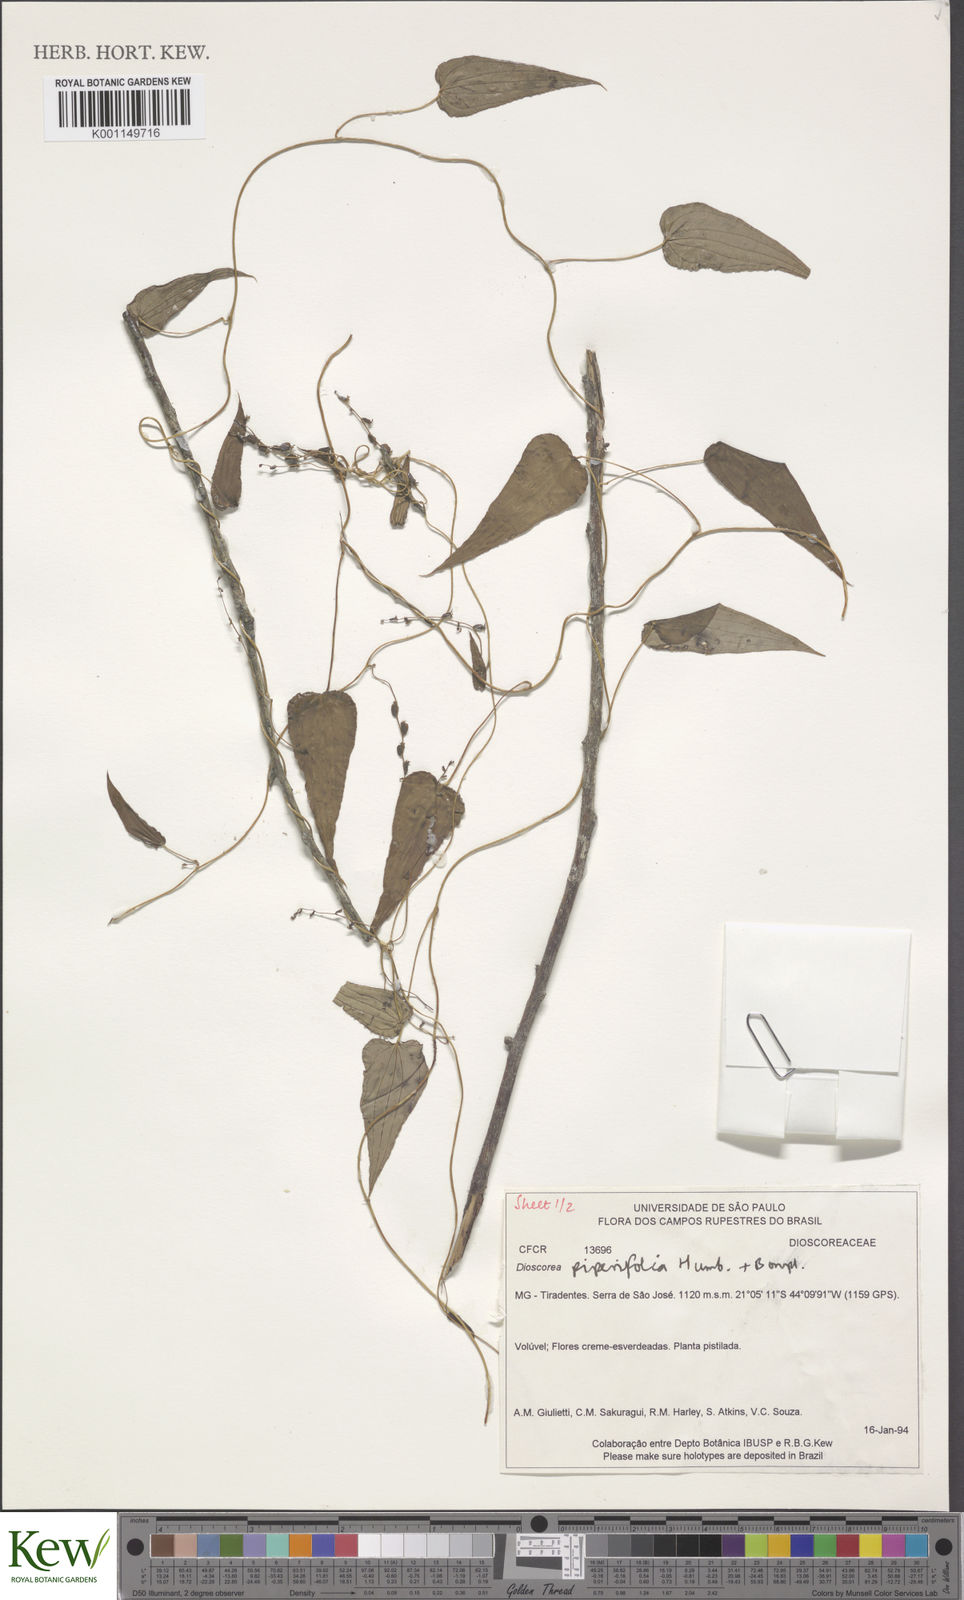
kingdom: Plantae
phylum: Tracheophyta
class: Liliopsida
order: Dioscoreales
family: Dioscoreaceae
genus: Dioscorea
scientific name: Dioscorea piperifolia
